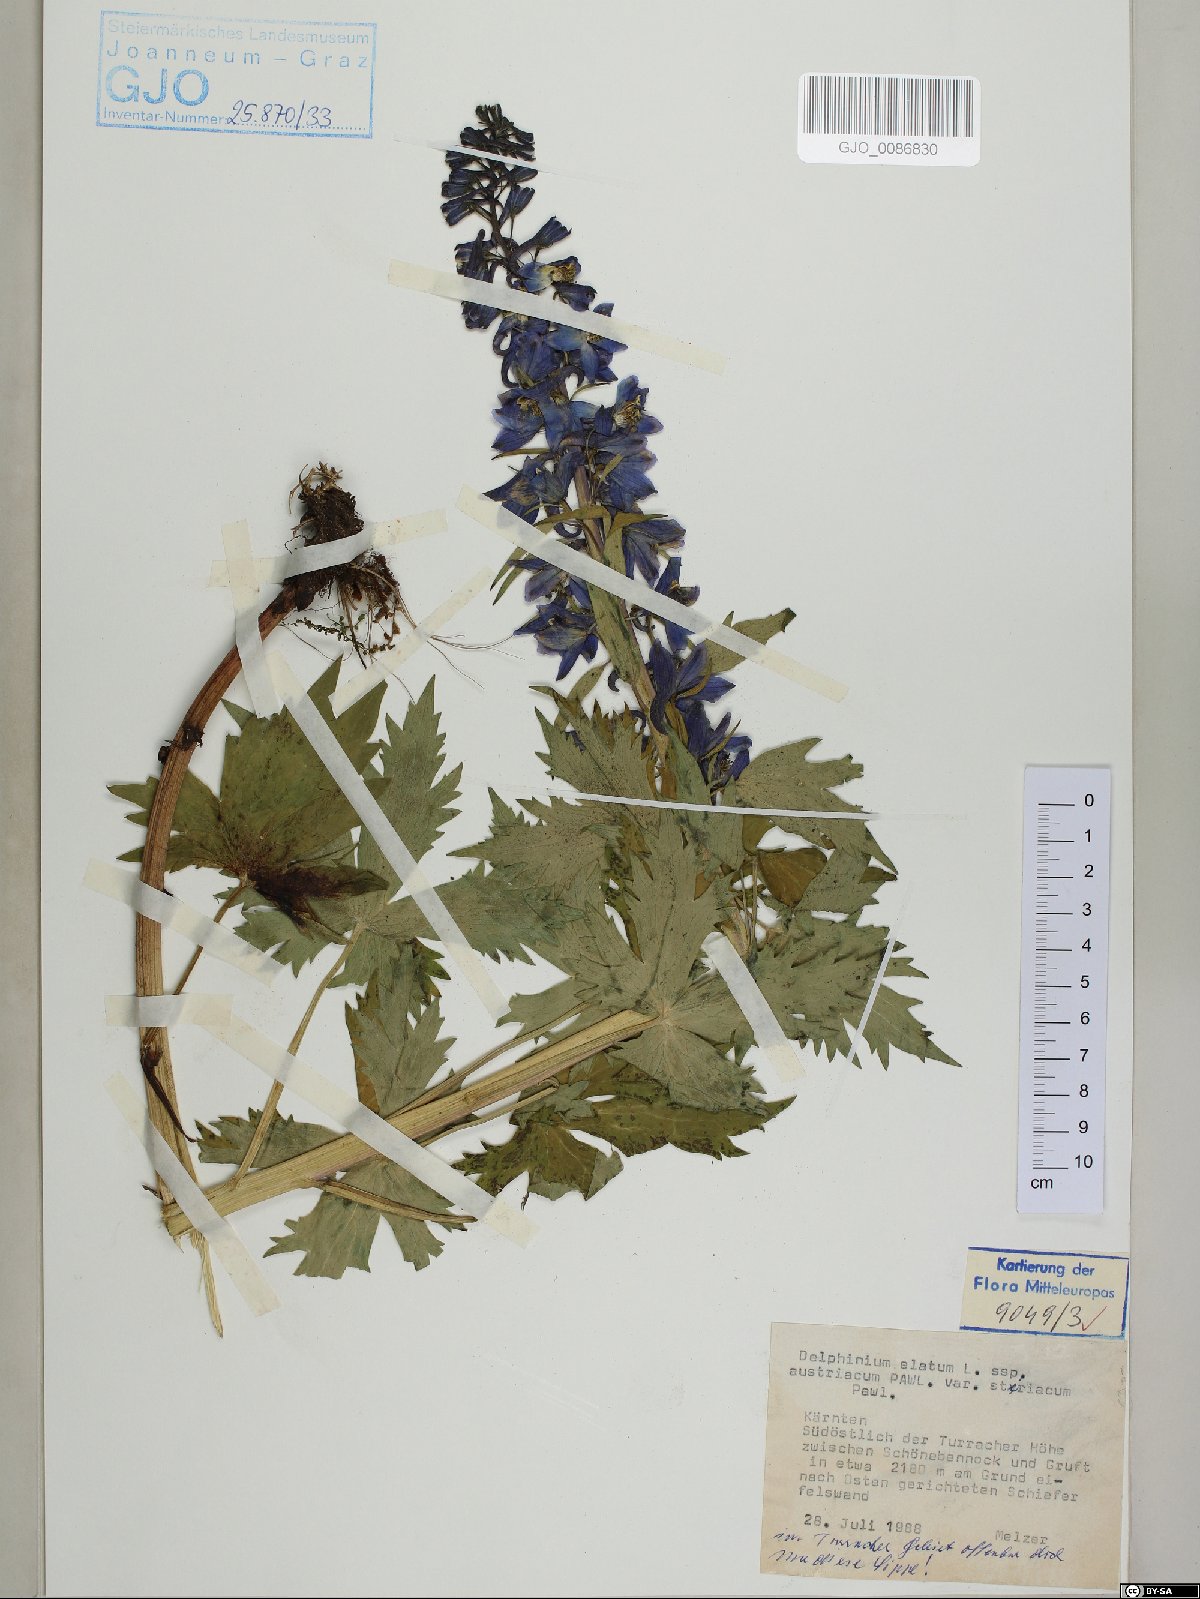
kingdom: Plantae
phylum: Tracheophyta
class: Magnoliopsida
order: Ranunculales
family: Ranunculaceae
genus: Delphinium
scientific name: Delphinium austriacum
